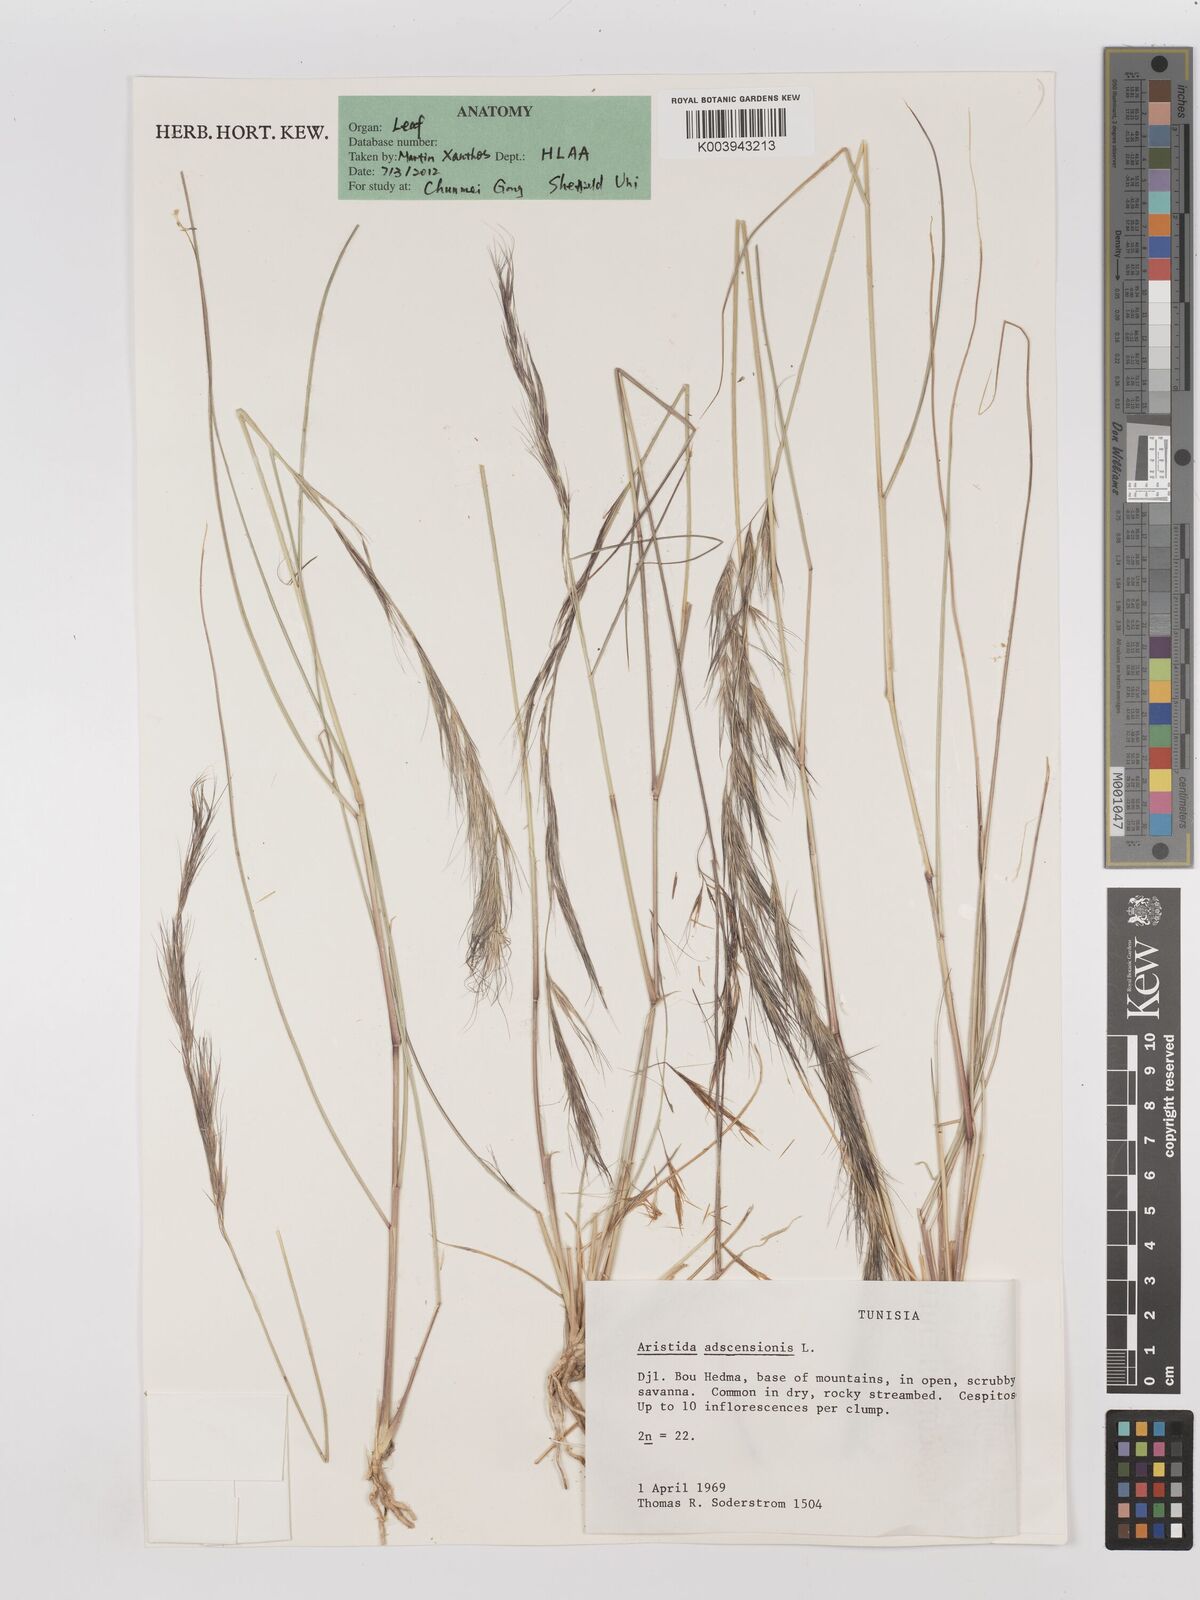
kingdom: Plantae
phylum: Tracheophyta
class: Liliopsida
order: Poales
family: Poaceae
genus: Aristida
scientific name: Aristida adscensionis
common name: Sixweeks threeawn
